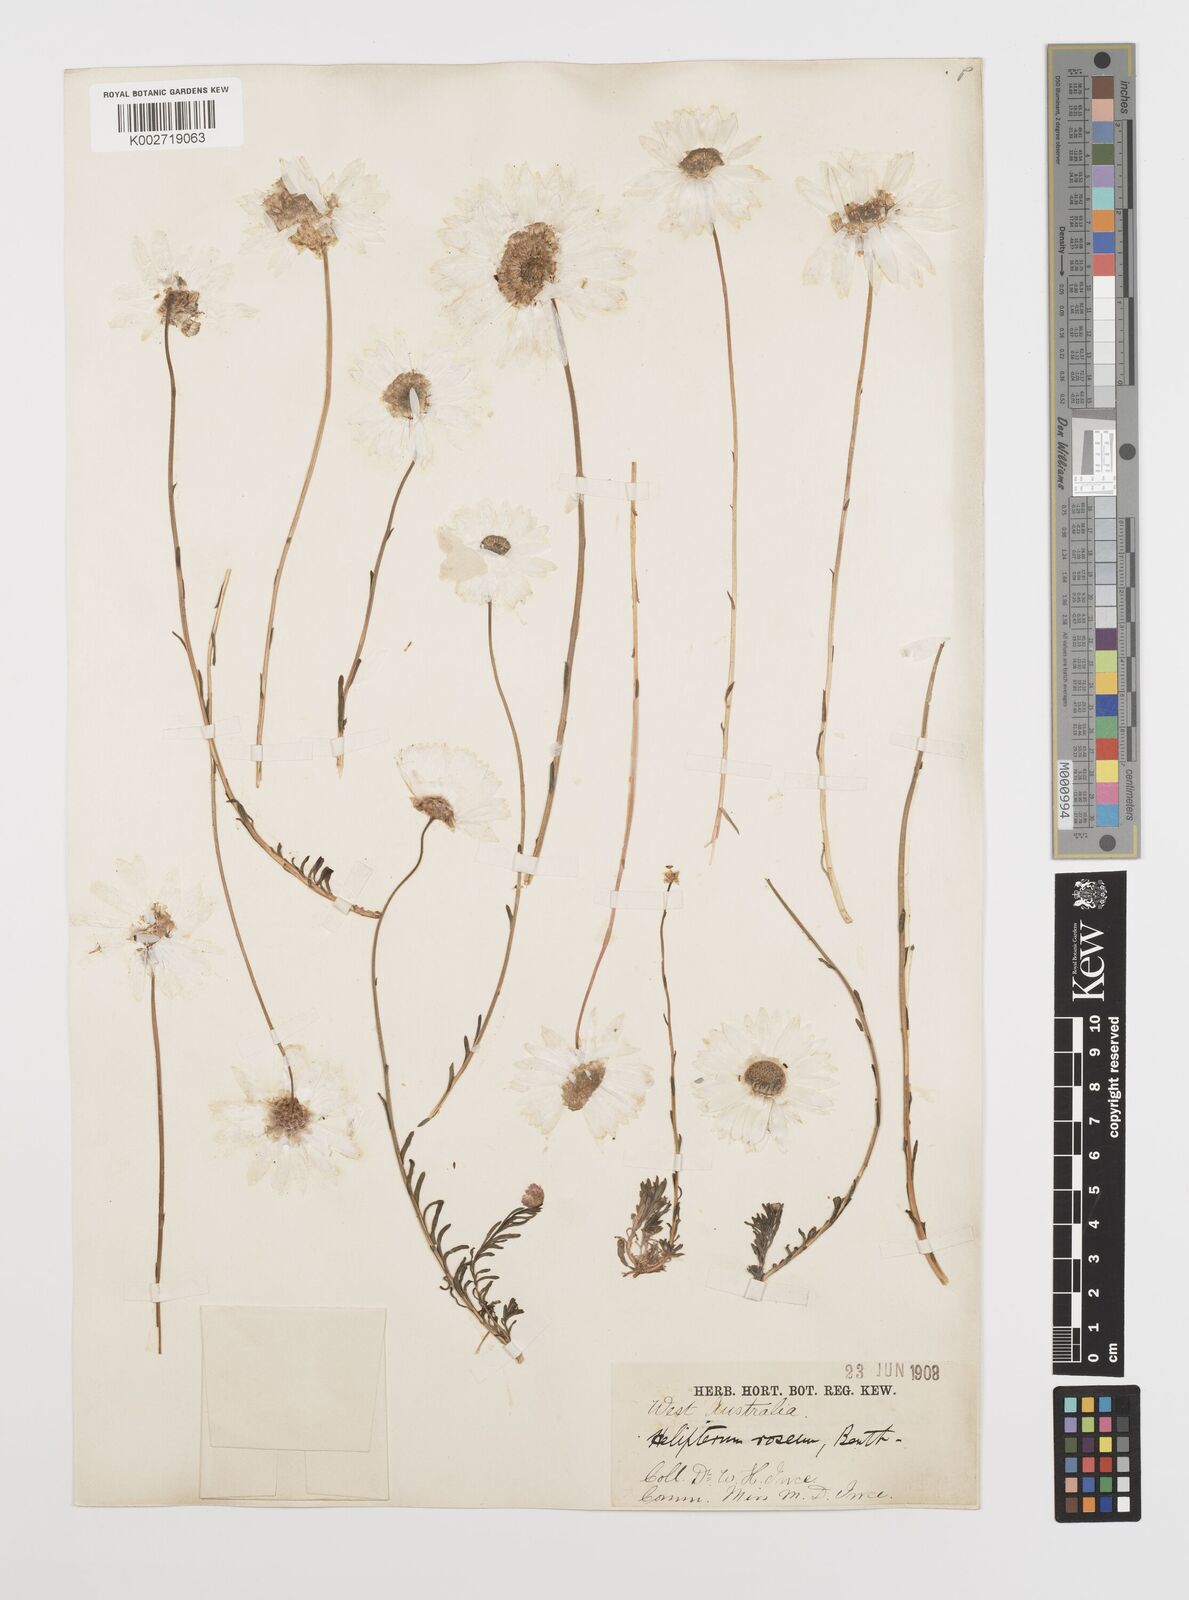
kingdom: Plantae
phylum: Tracheophyta
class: Magnoliopsida
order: Asterales
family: Asteraceae
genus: Rhodanthe
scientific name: Rhodanthe chlorocephala
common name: Rosy sunray
